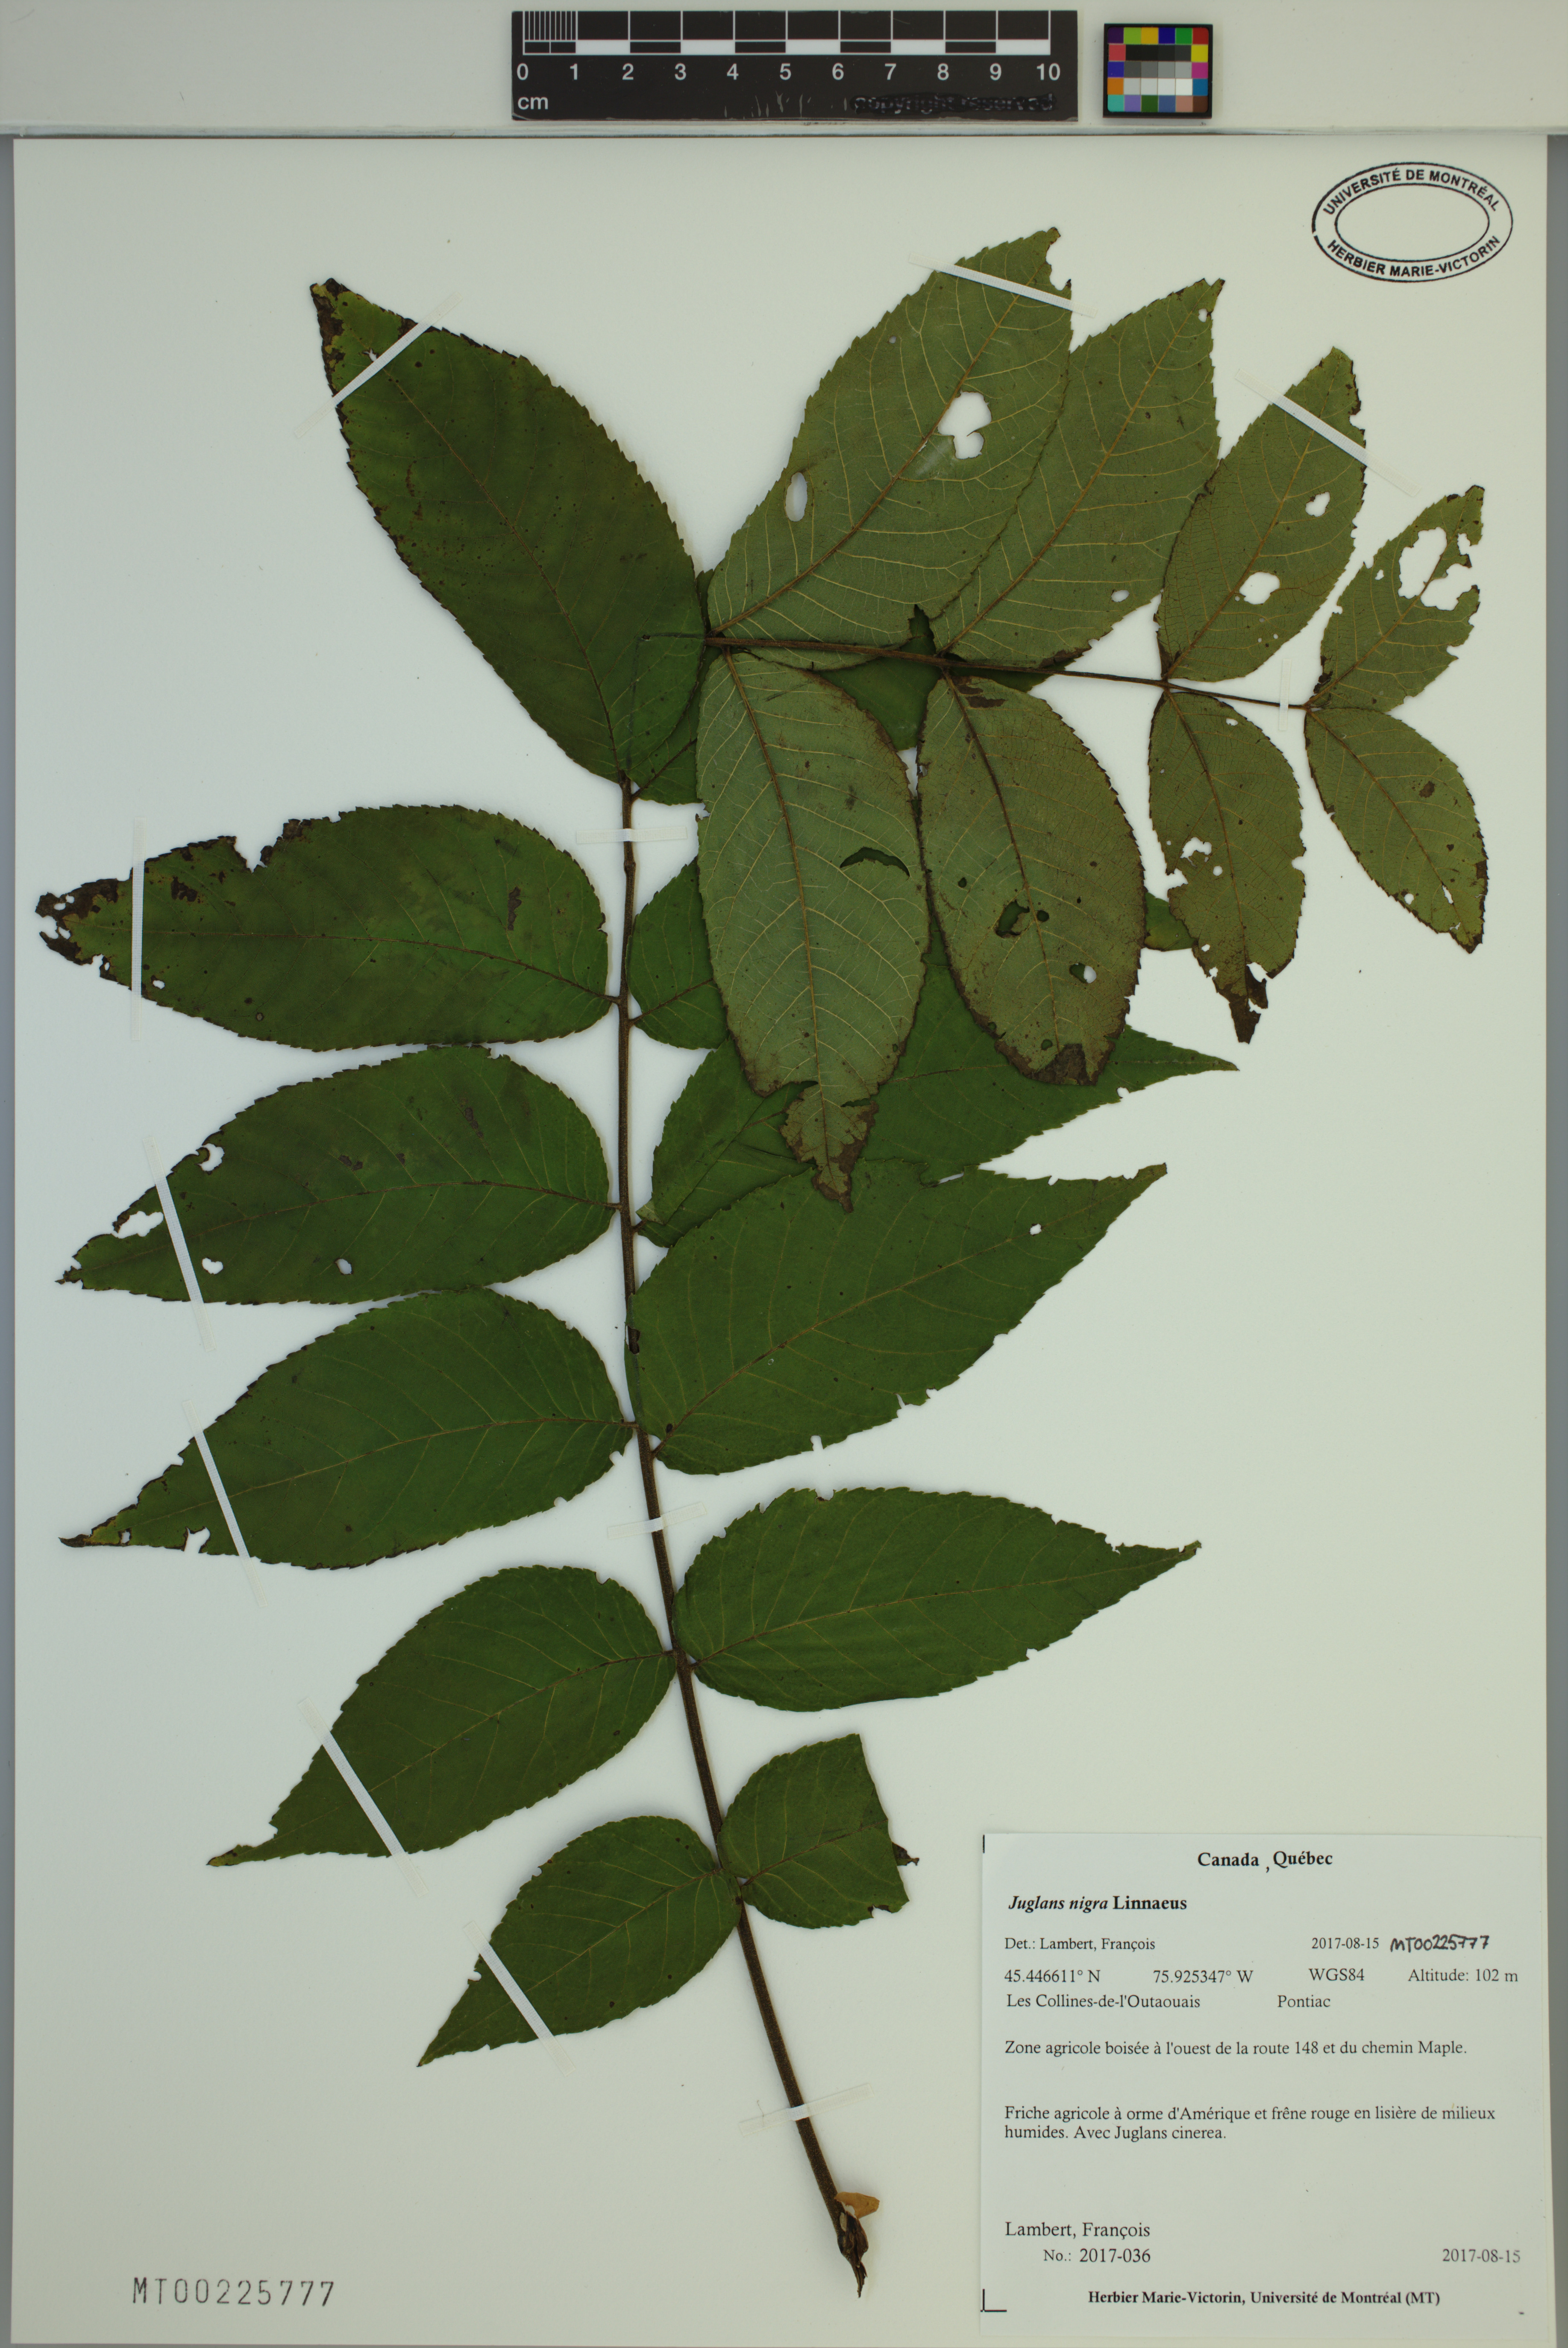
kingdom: Plantae
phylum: Tracheophyta
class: Magnoliopsida
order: Fagales
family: Juglandaceae
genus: Juglans
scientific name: Juglans nigra
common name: Black walnut
